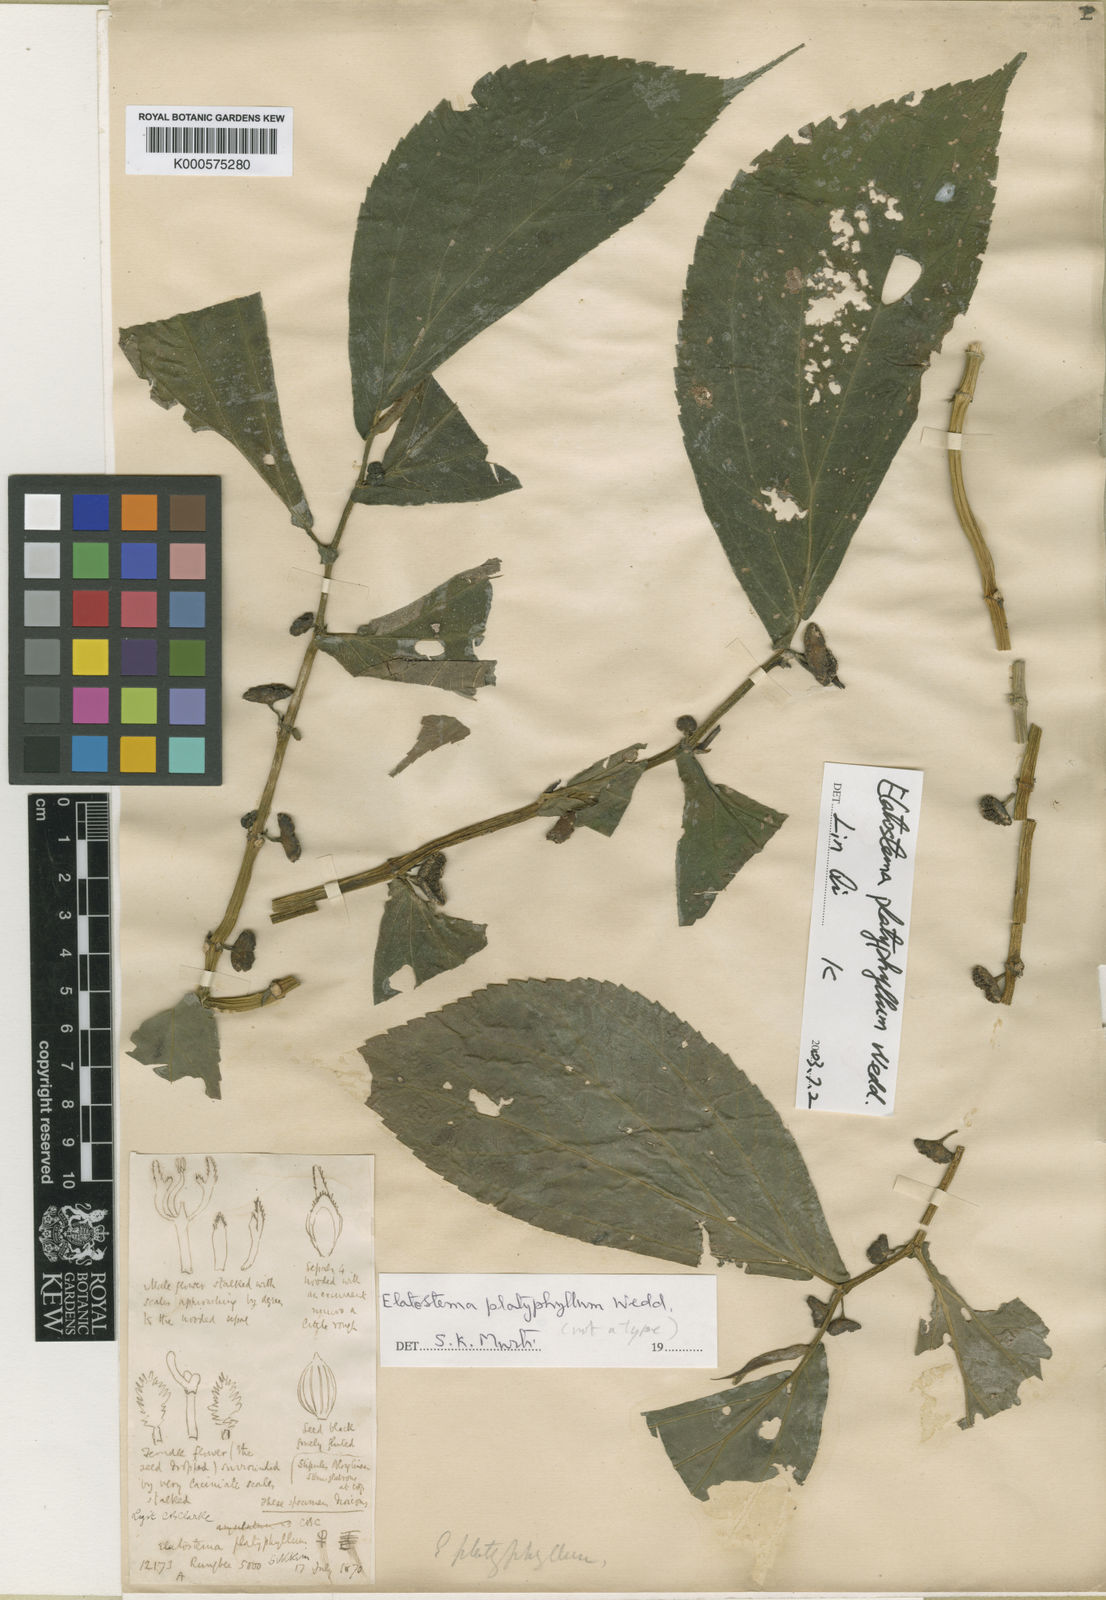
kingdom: Plantae
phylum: Tracheophyta
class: Magnoliopsida
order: Rosales
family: Urticaceae
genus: Elatostema
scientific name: Elatostema platyphyllum
